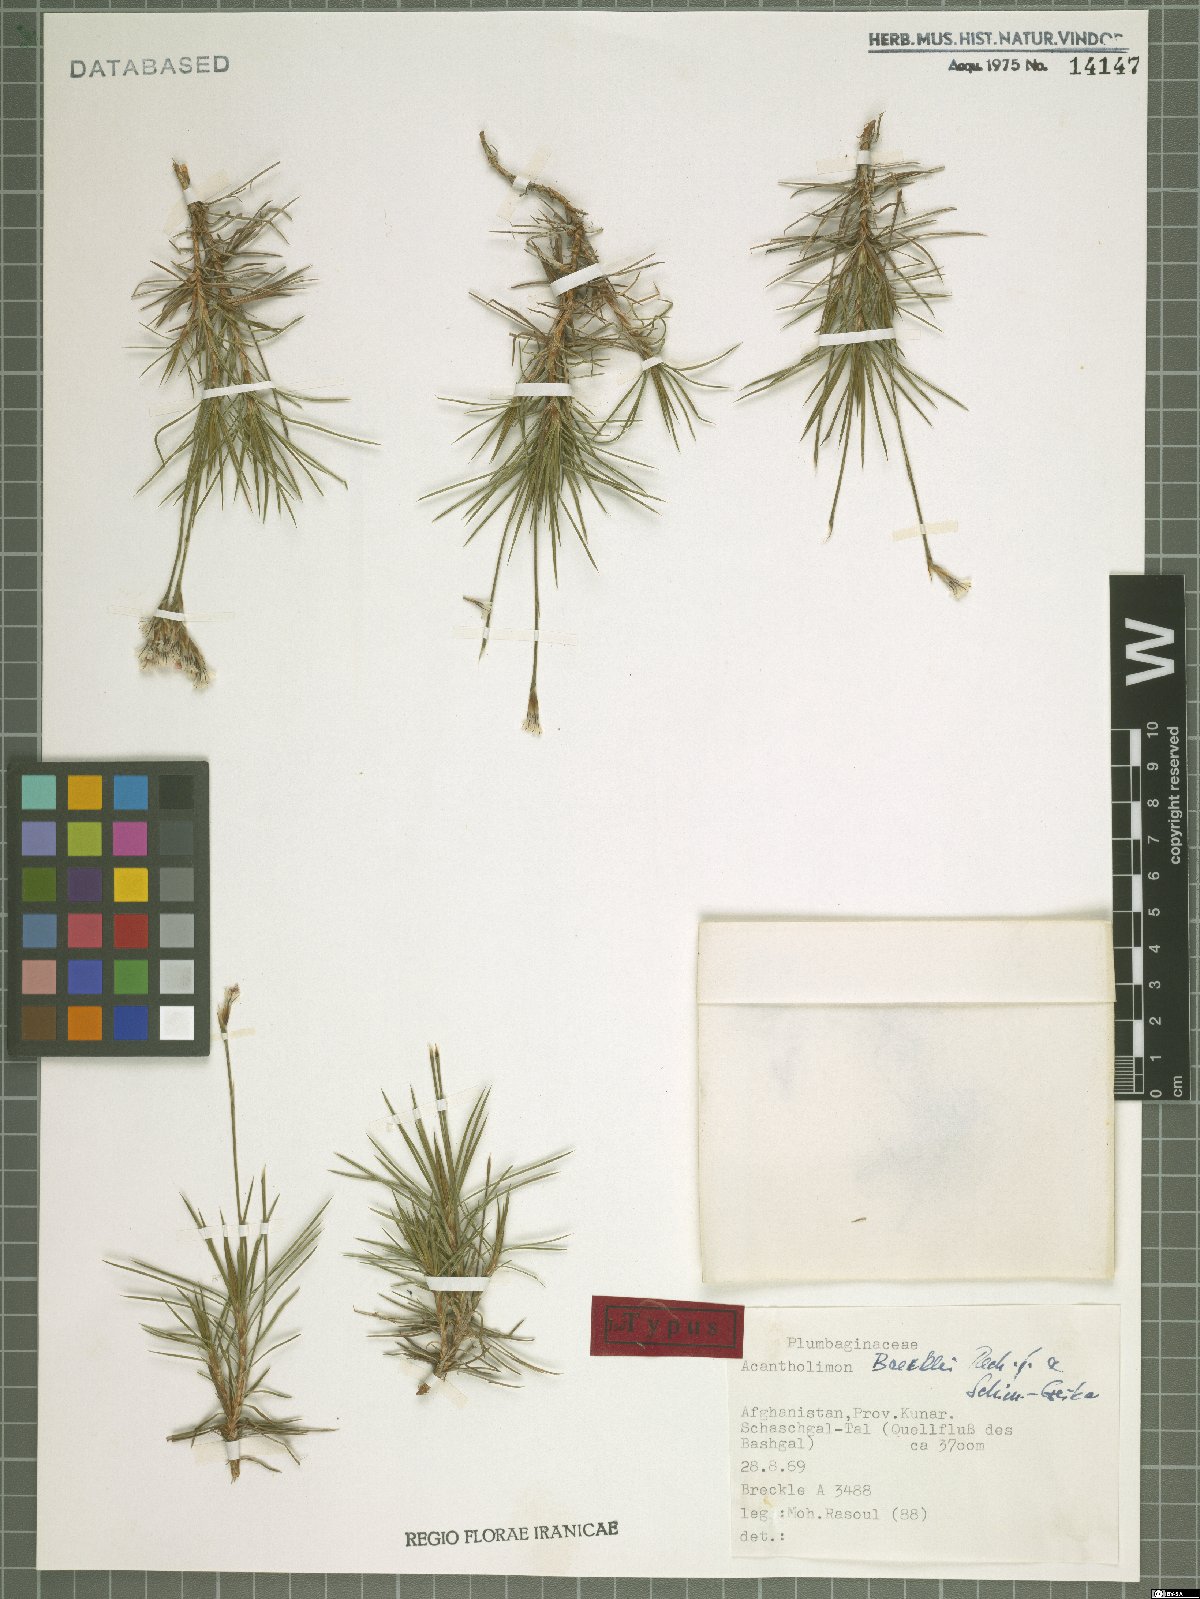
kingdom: Plantae
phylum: Tracheophyta
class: Magnoliopsida
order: Caryophyllales
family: Plumbaginaceae
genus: Acantholimon
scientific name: Acantholimon brecklei
